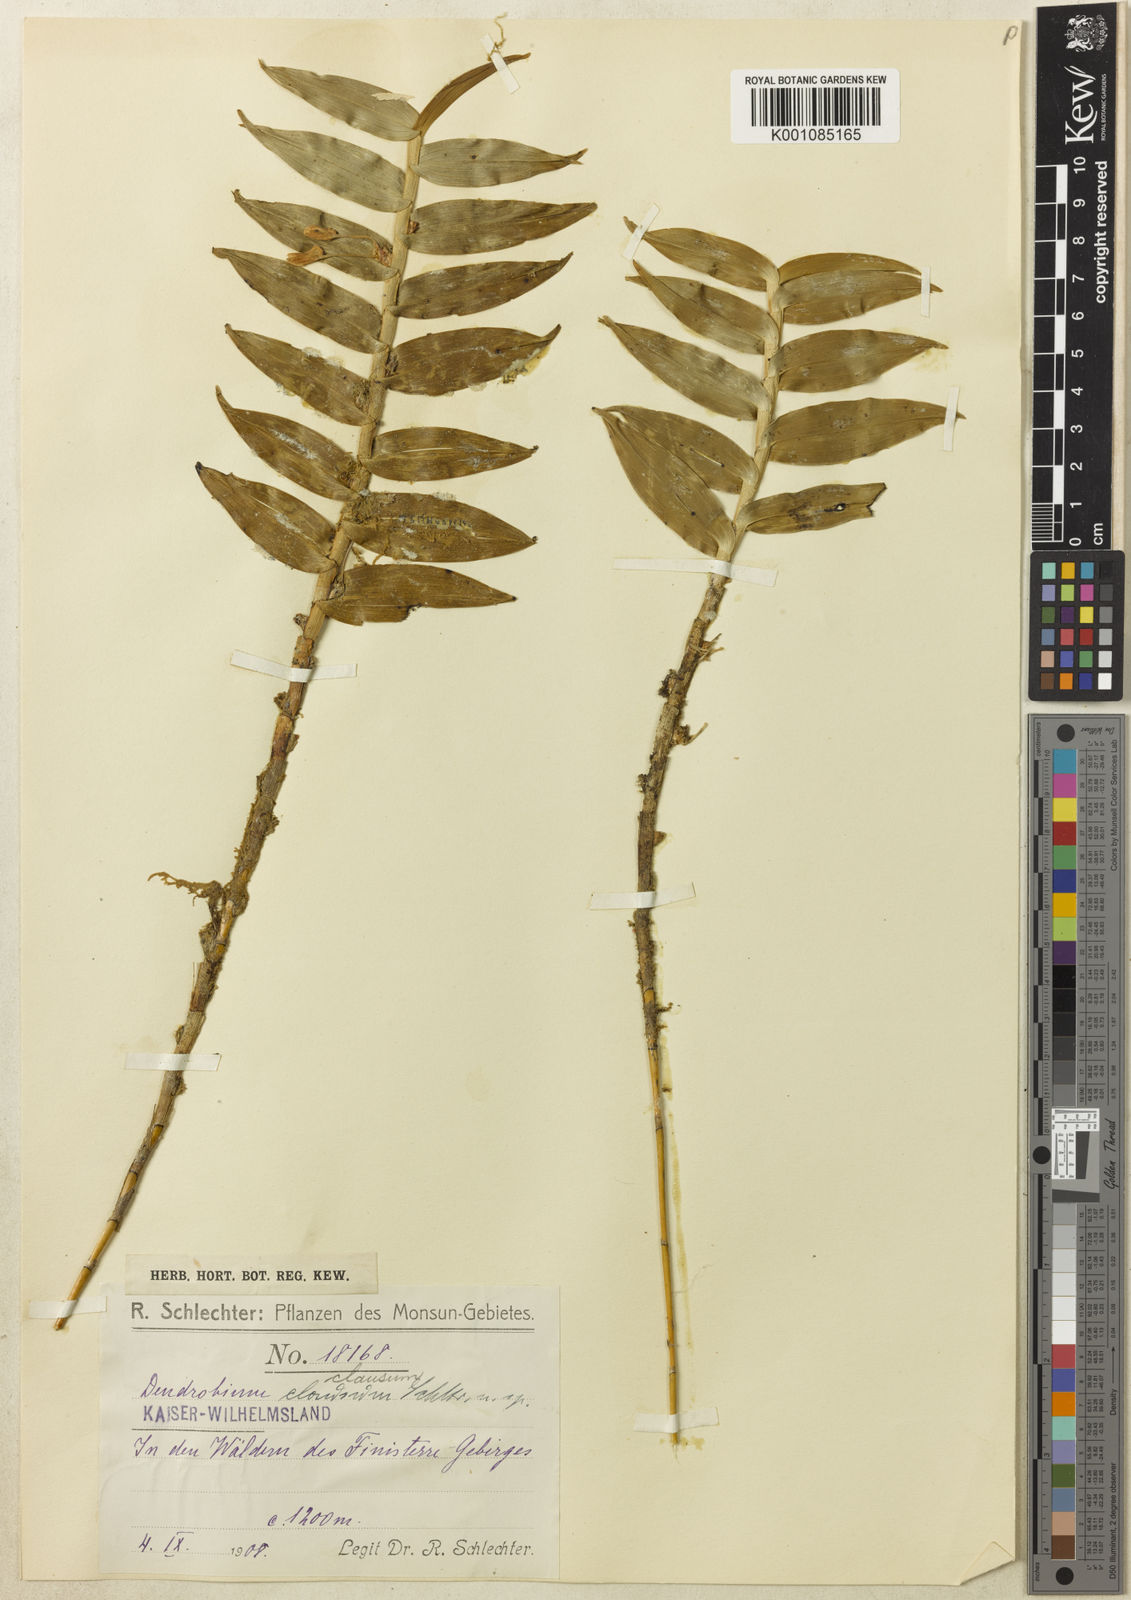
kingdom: Plantae
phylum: Tracheophyta
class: Liliopsida
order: Asparagales
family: Orchidaceae
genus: Dendrobium
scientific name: Dendrobium clausum
